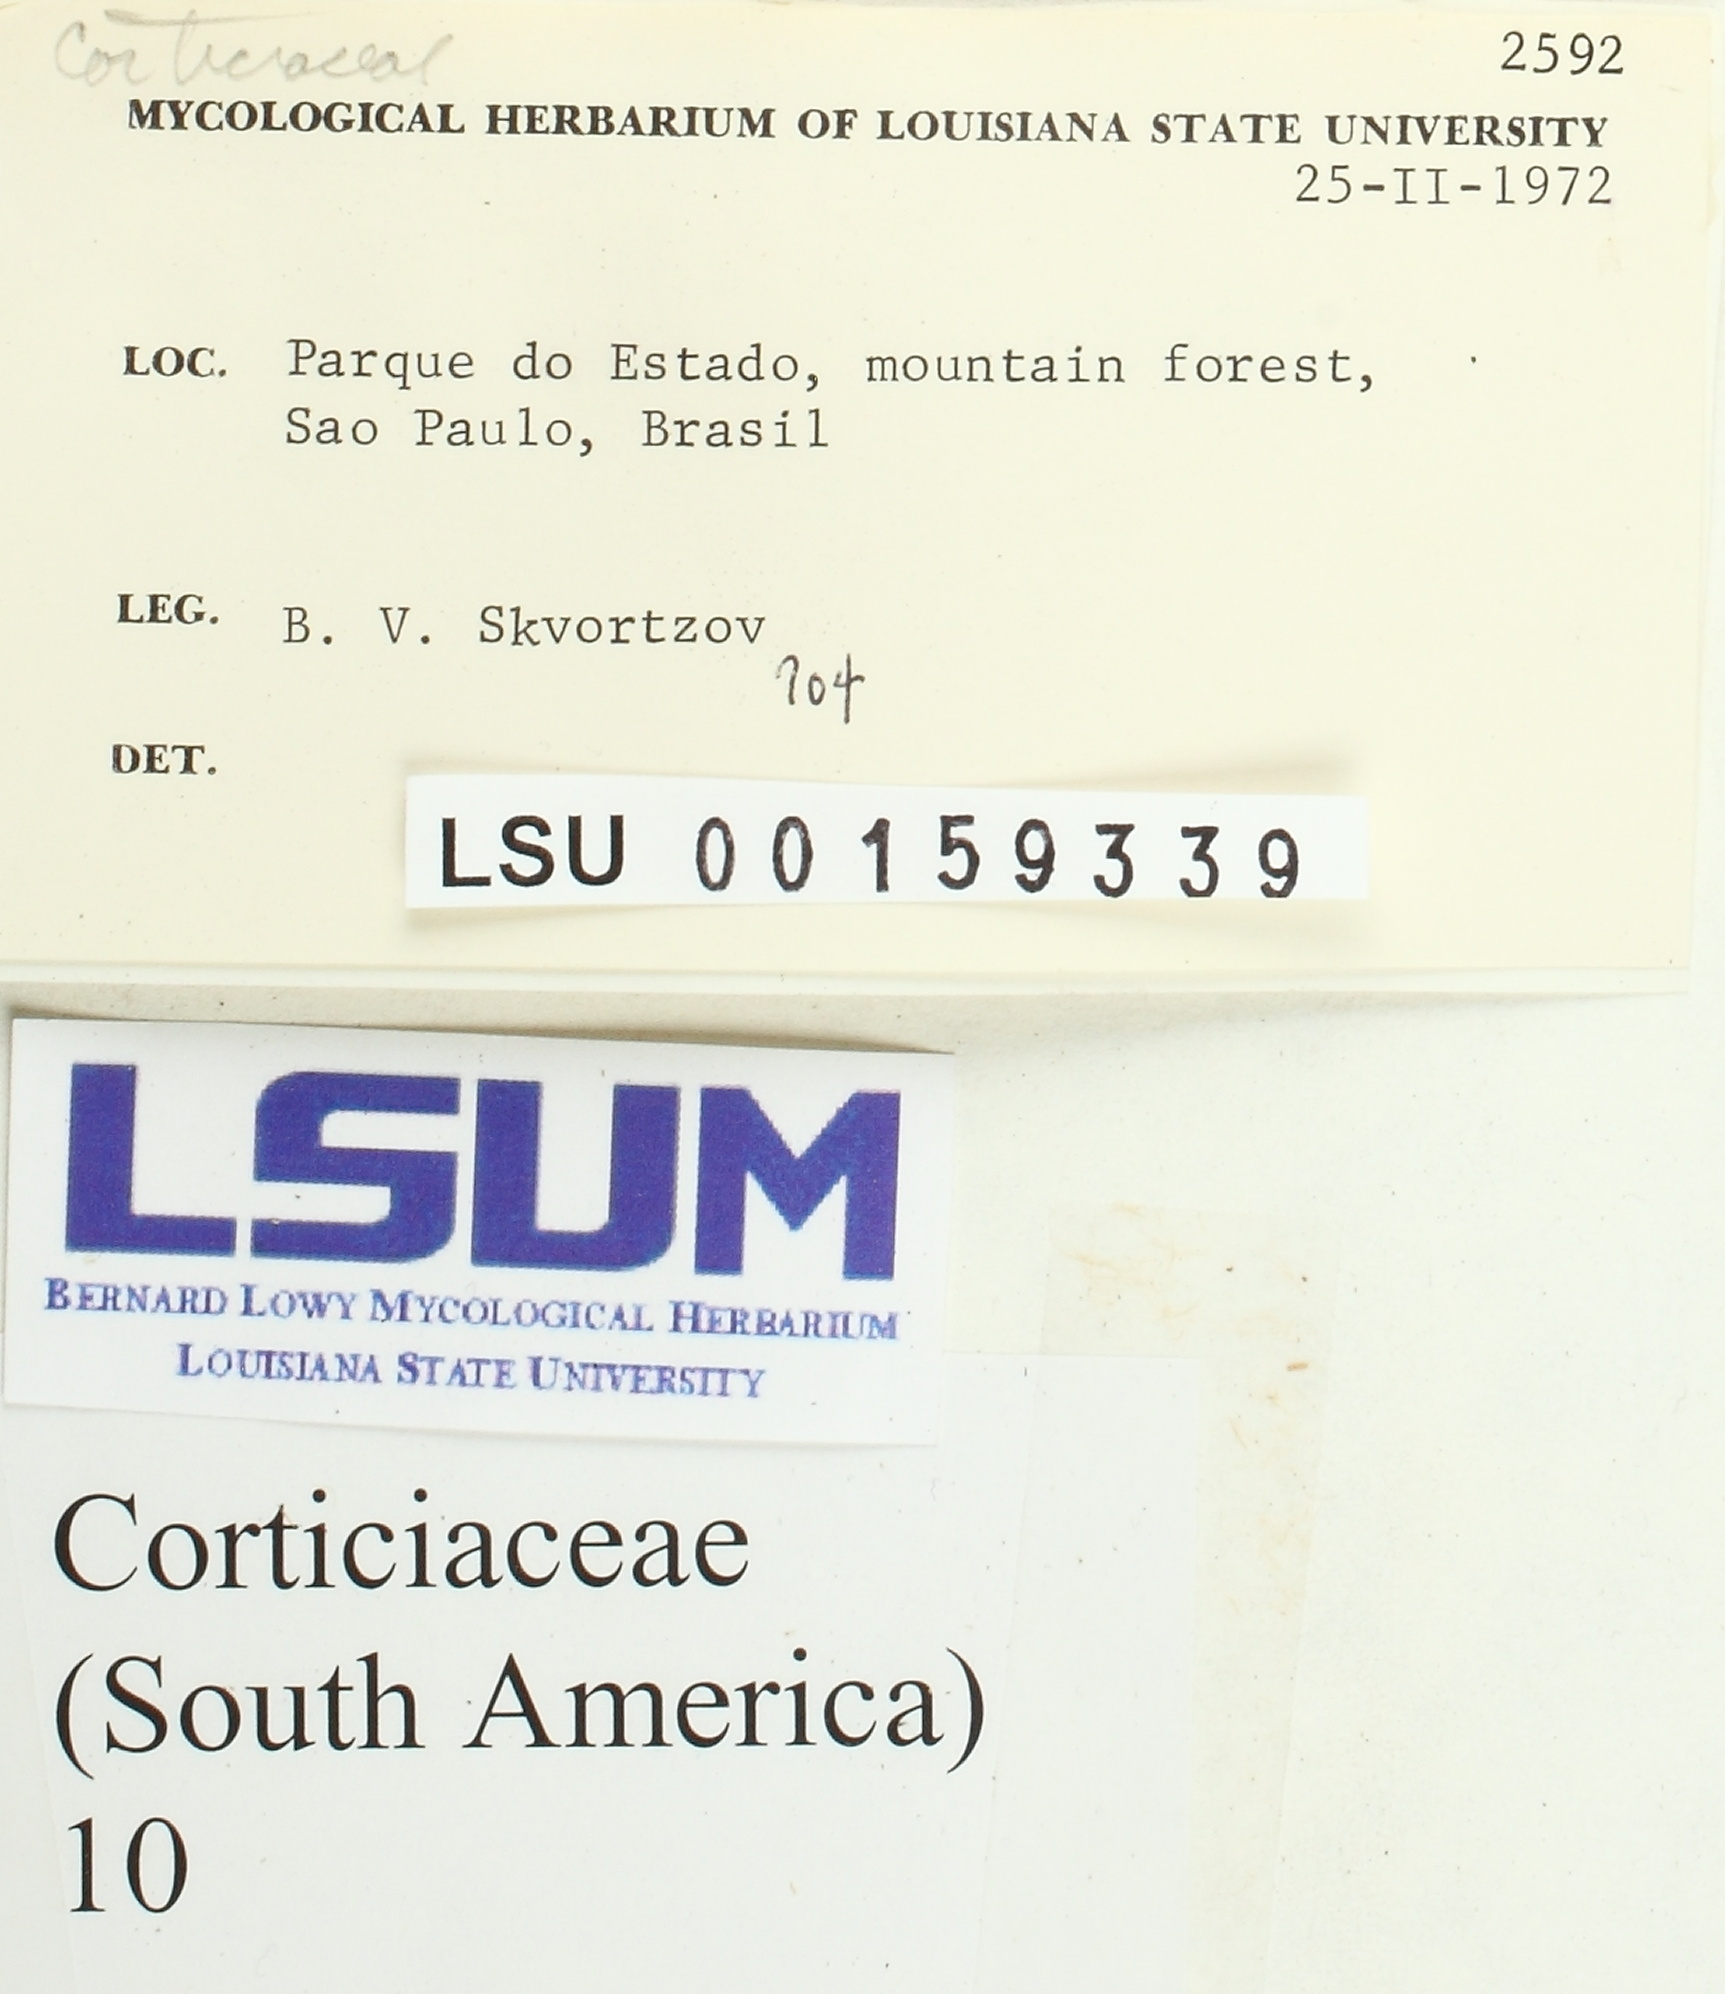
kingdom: Fungi
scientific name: Fungi
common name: Fungi
